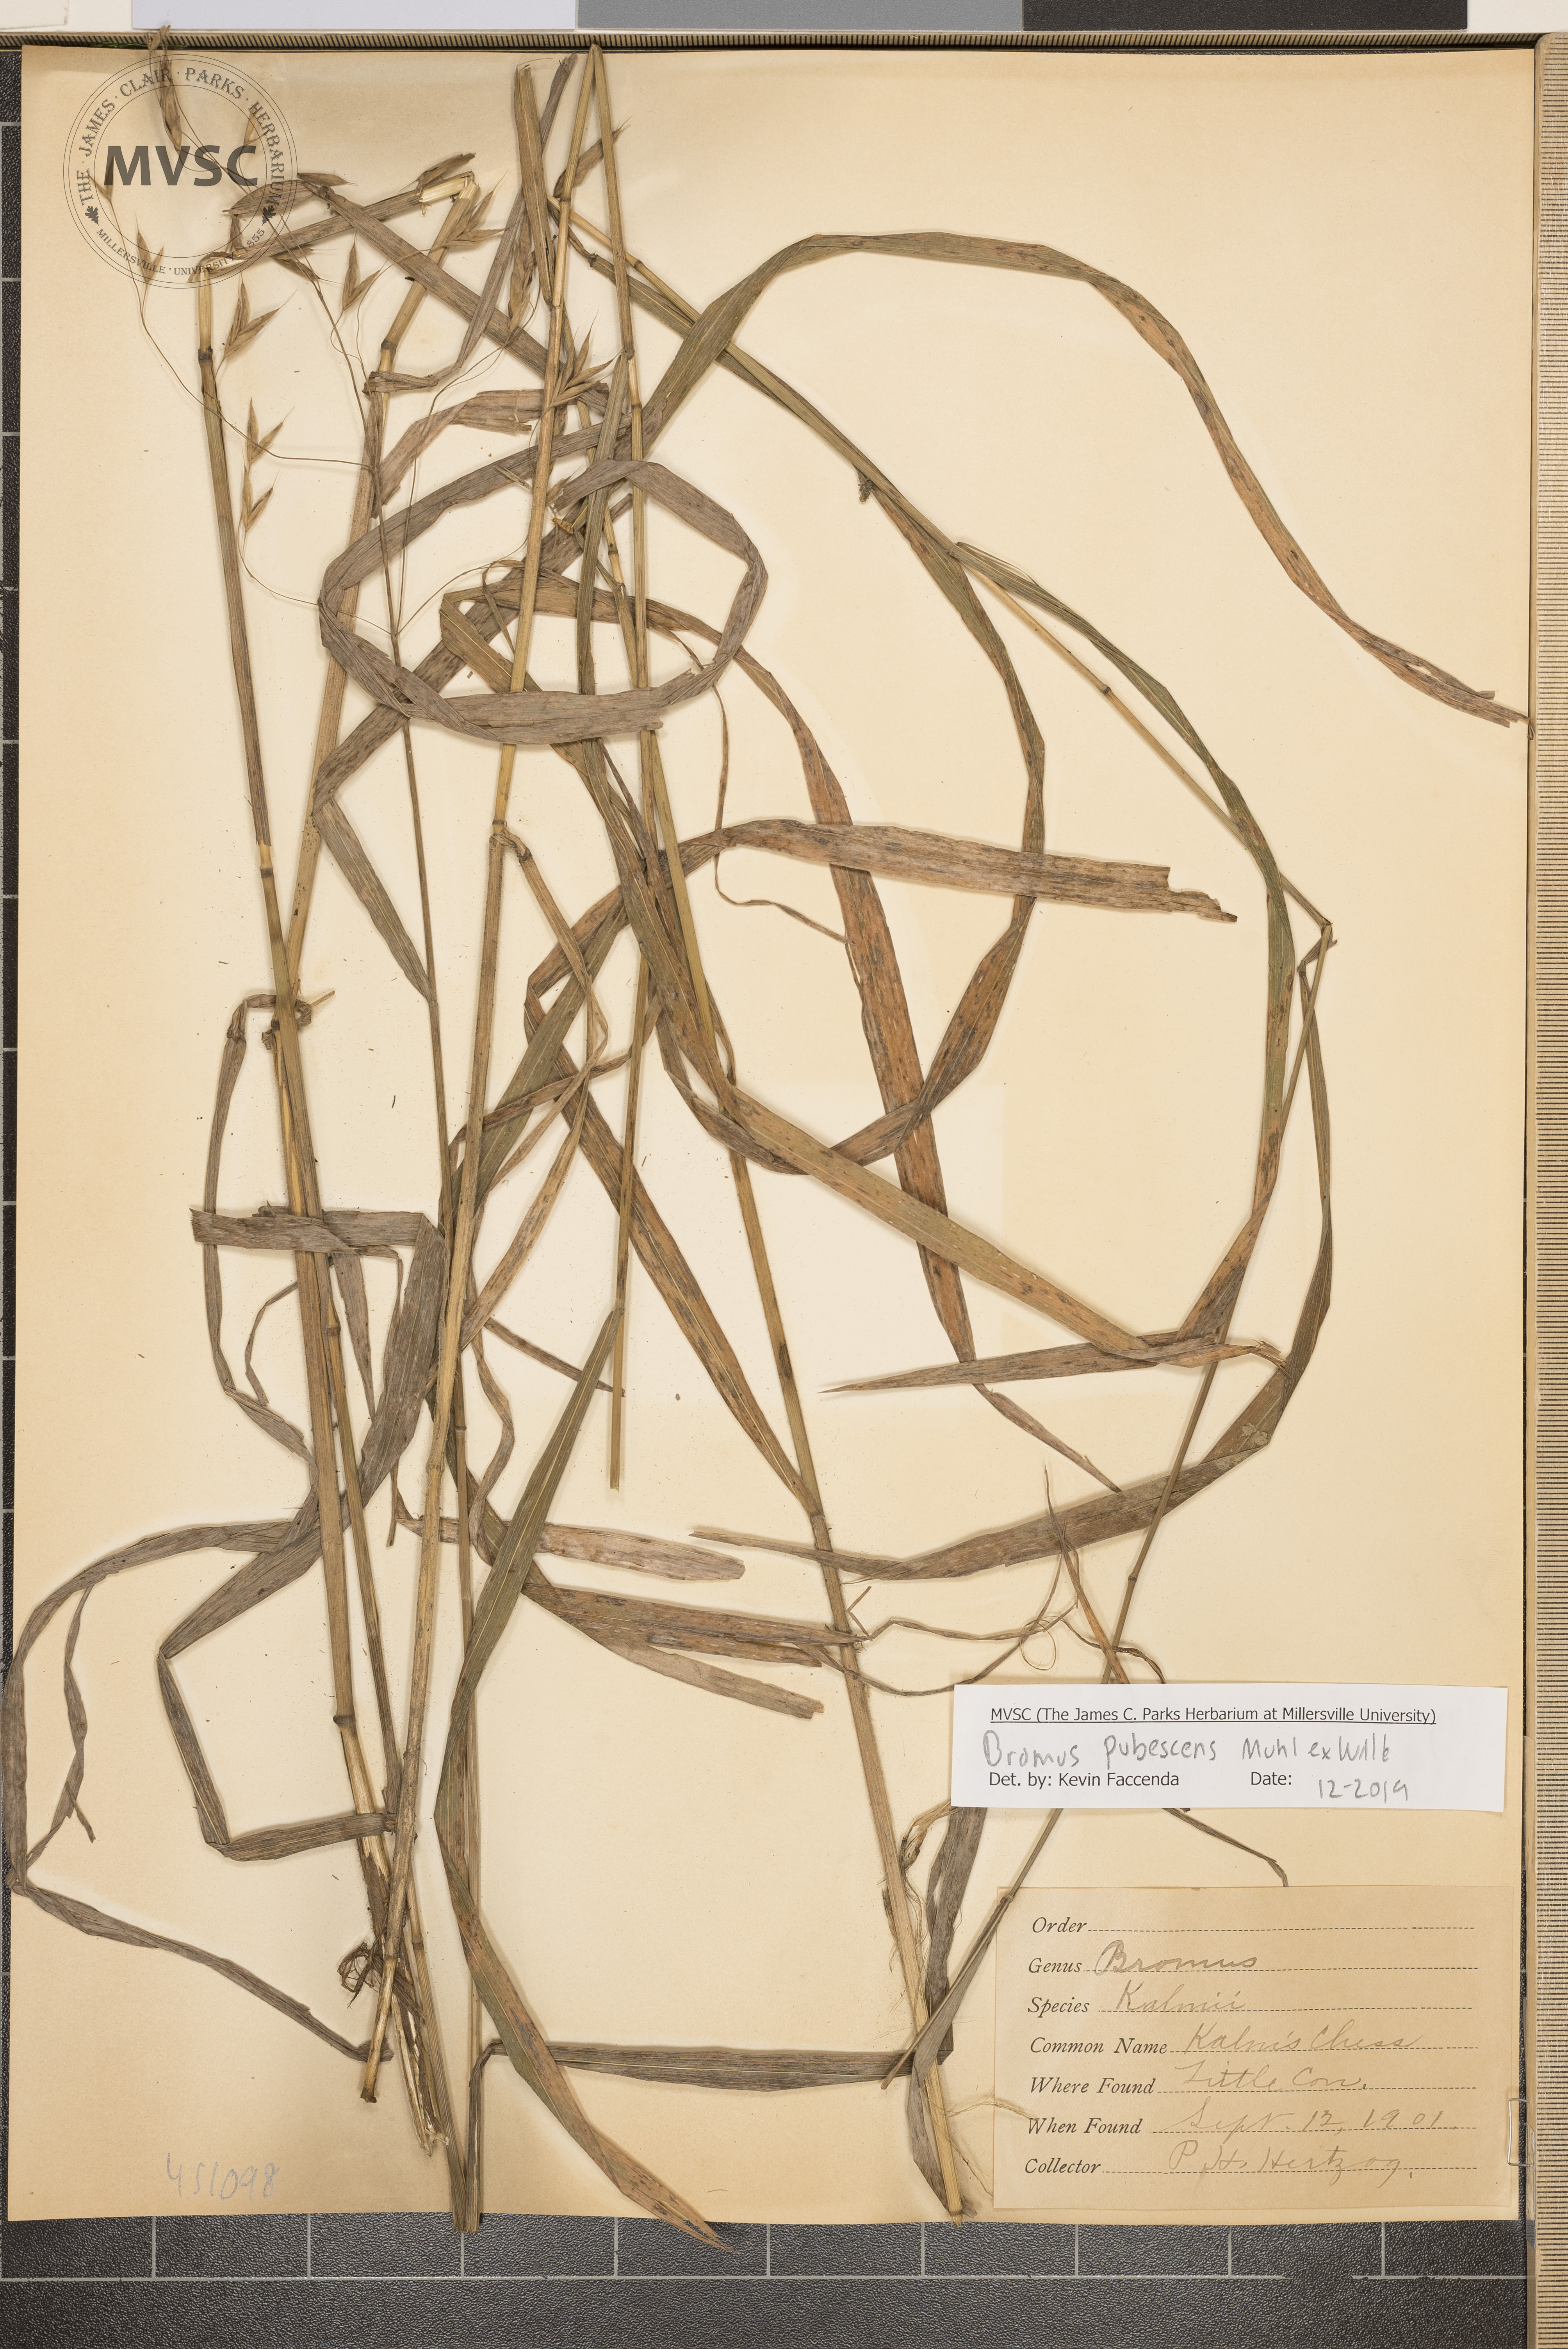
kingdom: Plantae
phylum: Tracheophyta
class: Liliopsida
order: Poales
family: Poaceae
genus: Bromus
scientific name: Bromus pubescens
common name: Hairy wood brome grass
